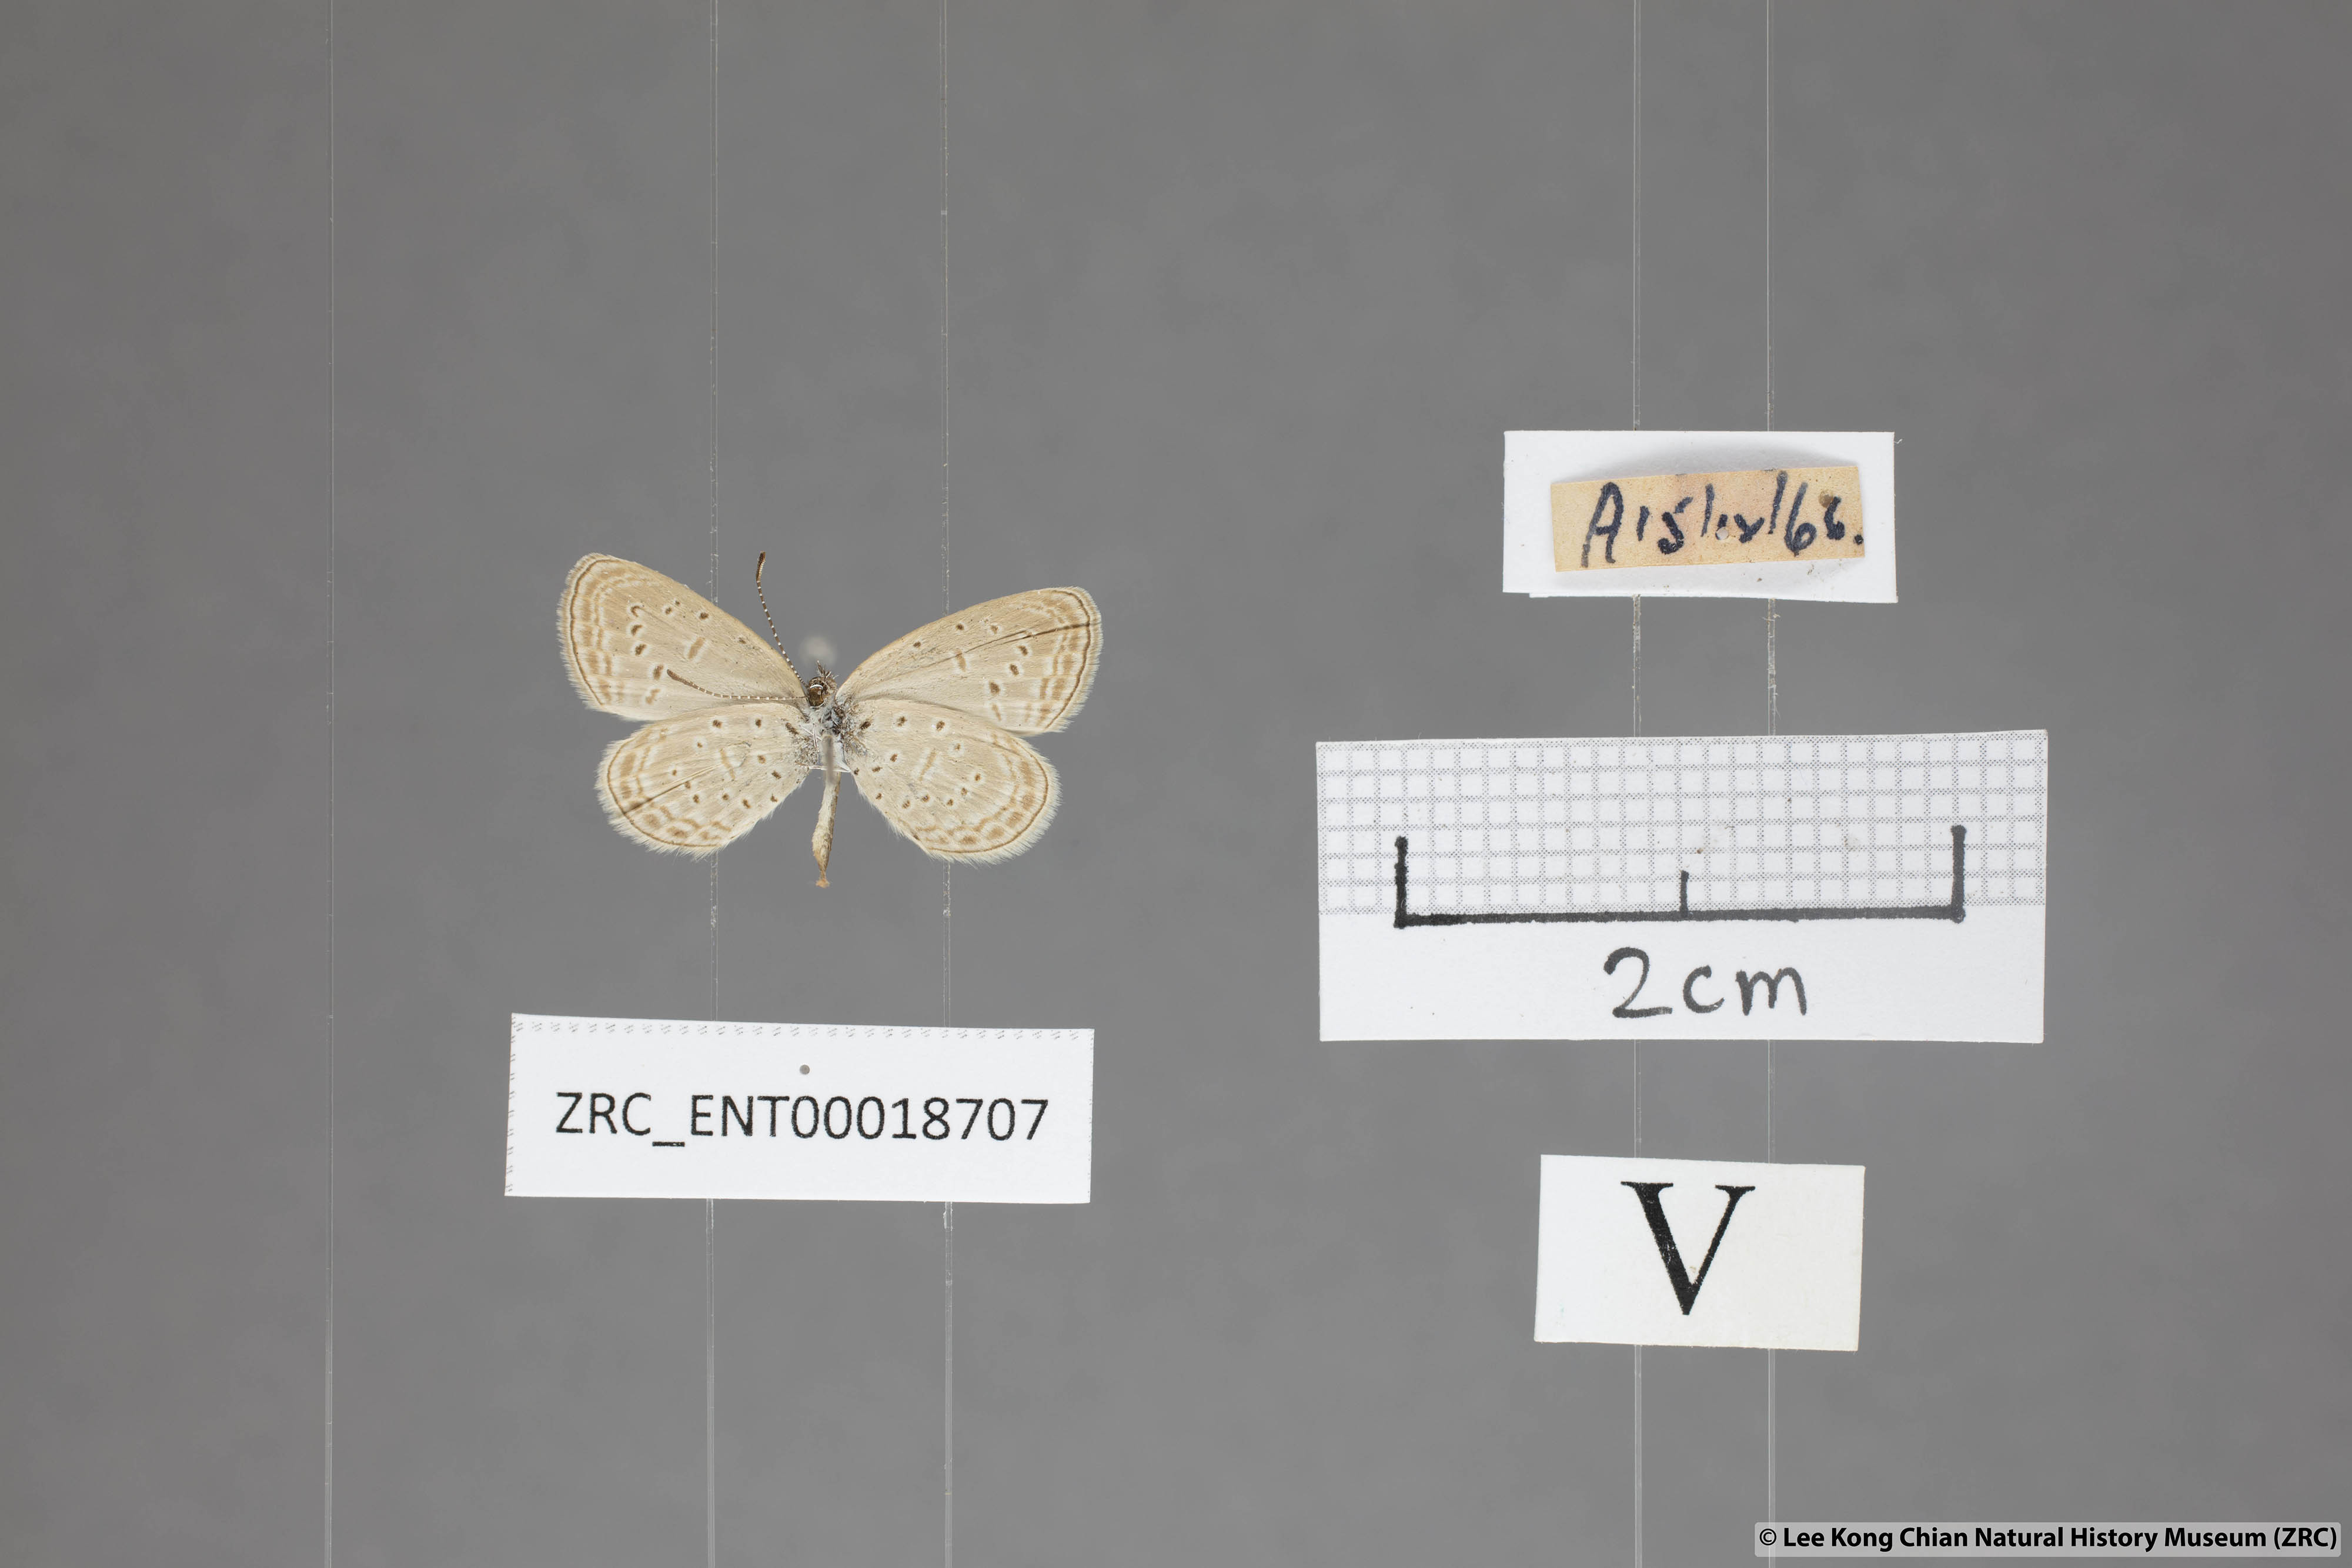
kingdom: Animalia
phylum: Arthropoda
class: Insecta
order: Lepidoptera
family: Lycaenidae
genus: Zizula
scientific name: Zizula hylax
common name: Gaika blue
